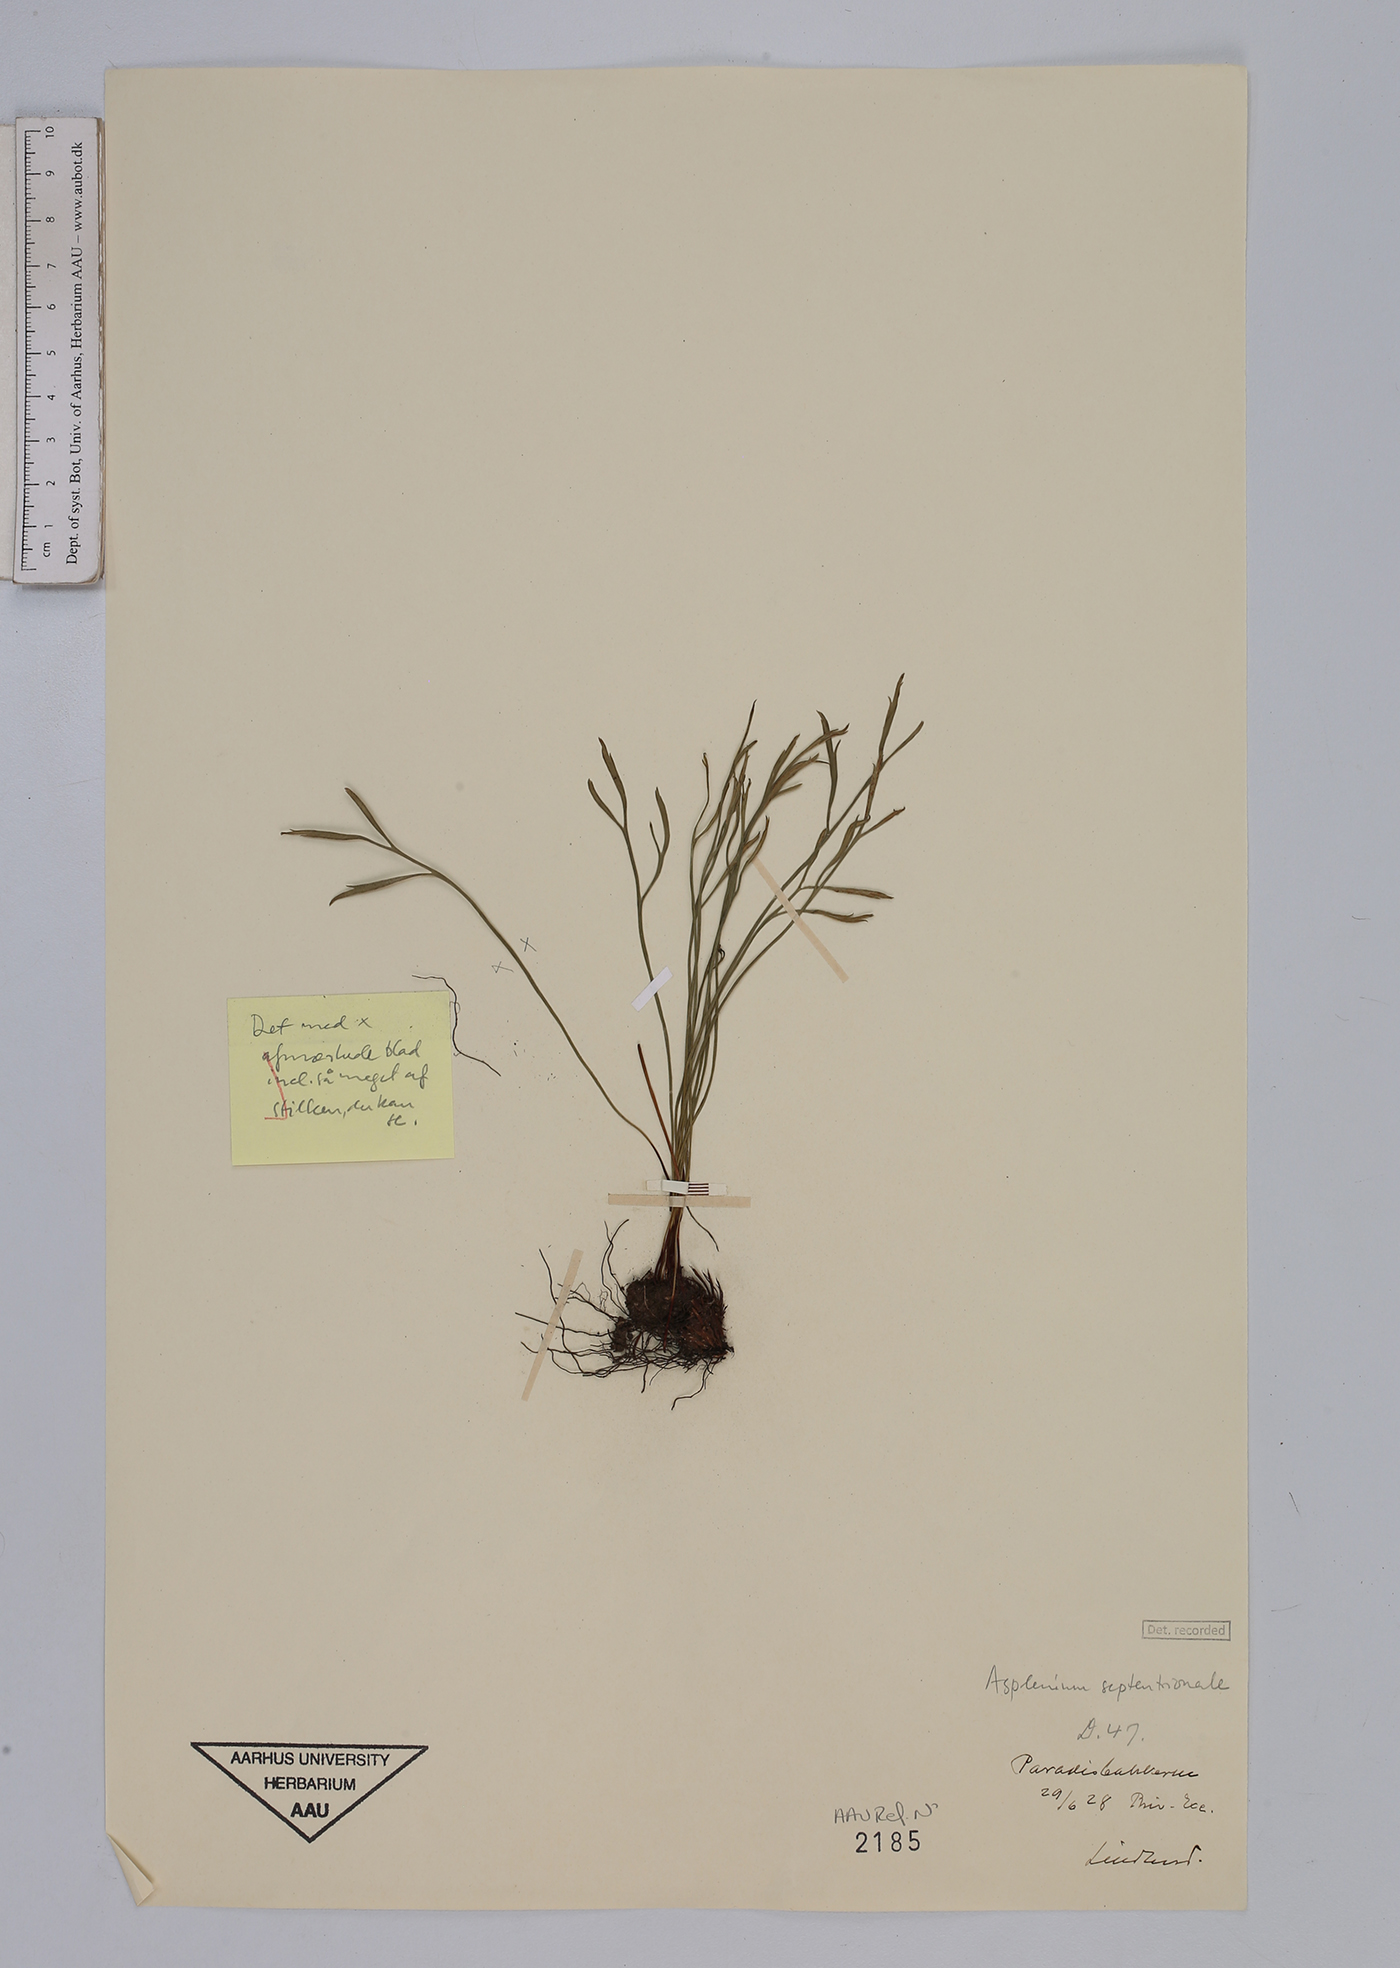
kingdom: Plantae
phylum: Tracheophyta
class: Polypodiopsida
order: Polypodiales
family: Aspleniaceae
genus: Asplenium
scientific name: Asplenium septentrionale
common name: Forked spleenwort
